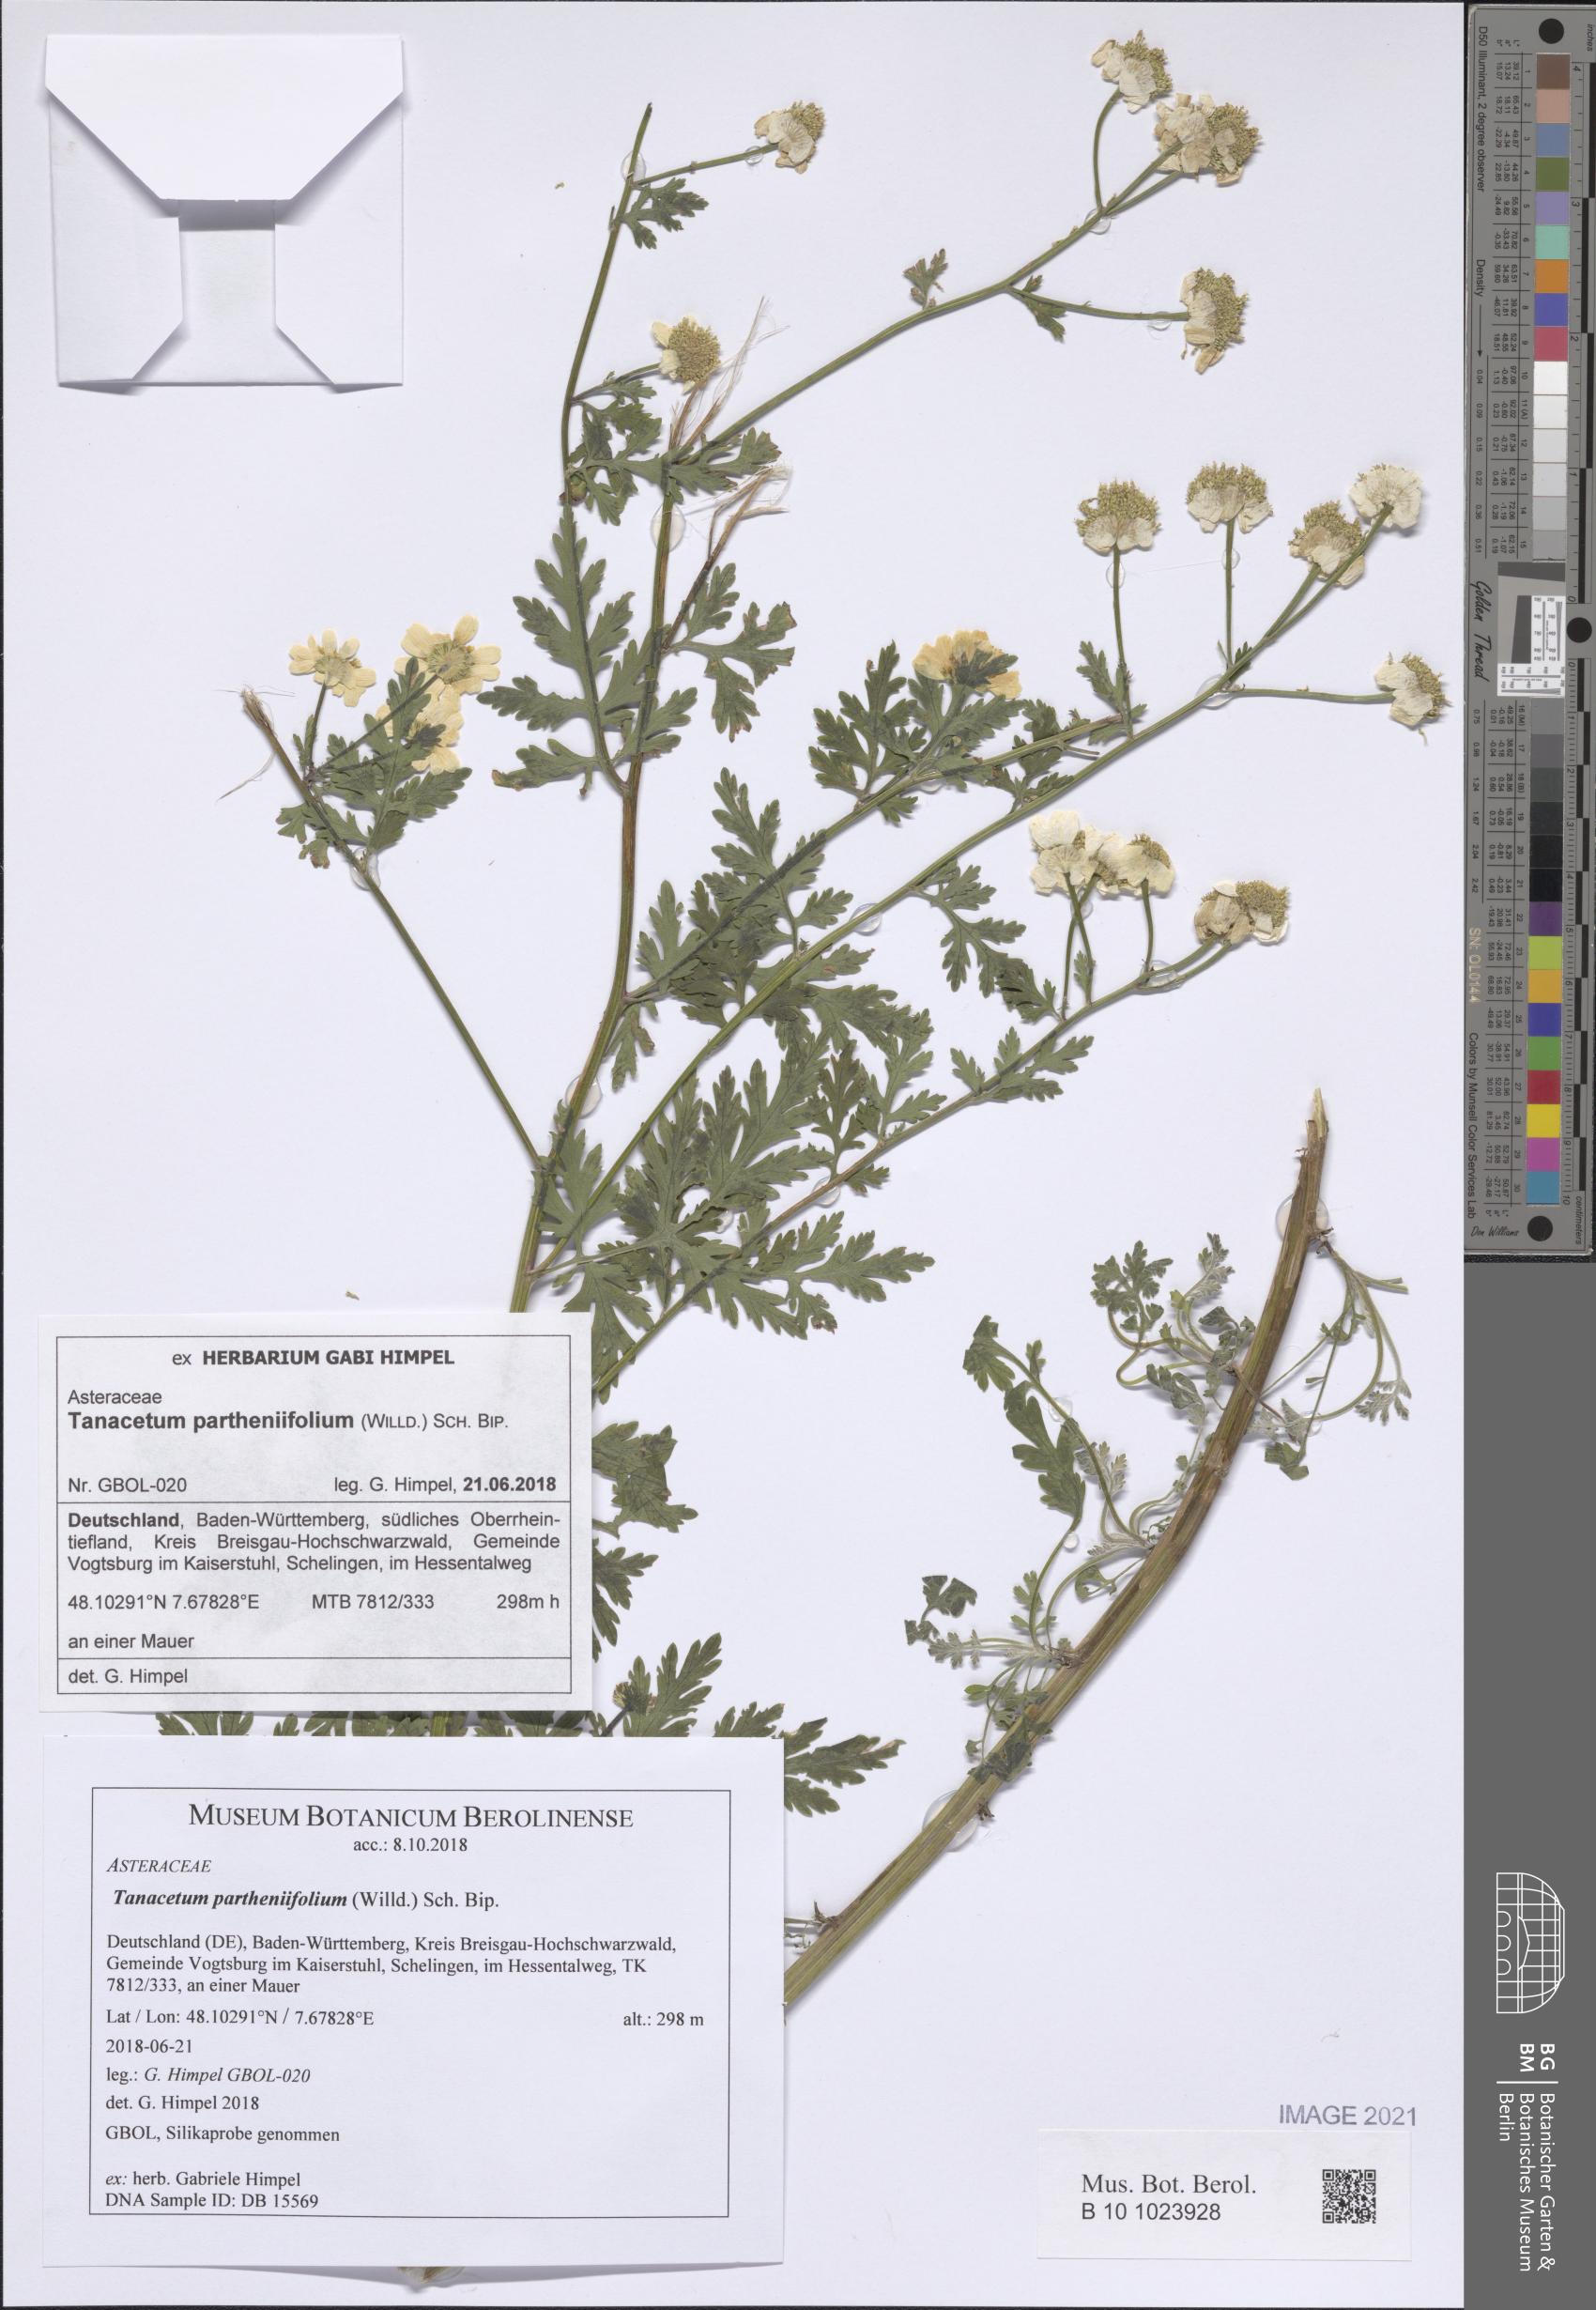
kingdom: Plantae
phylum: Tracheophyta
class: Magnoliopsida
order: Asterales
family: Asteraceae
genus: Tanacetum
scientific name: Tanacetum partheniifolium
